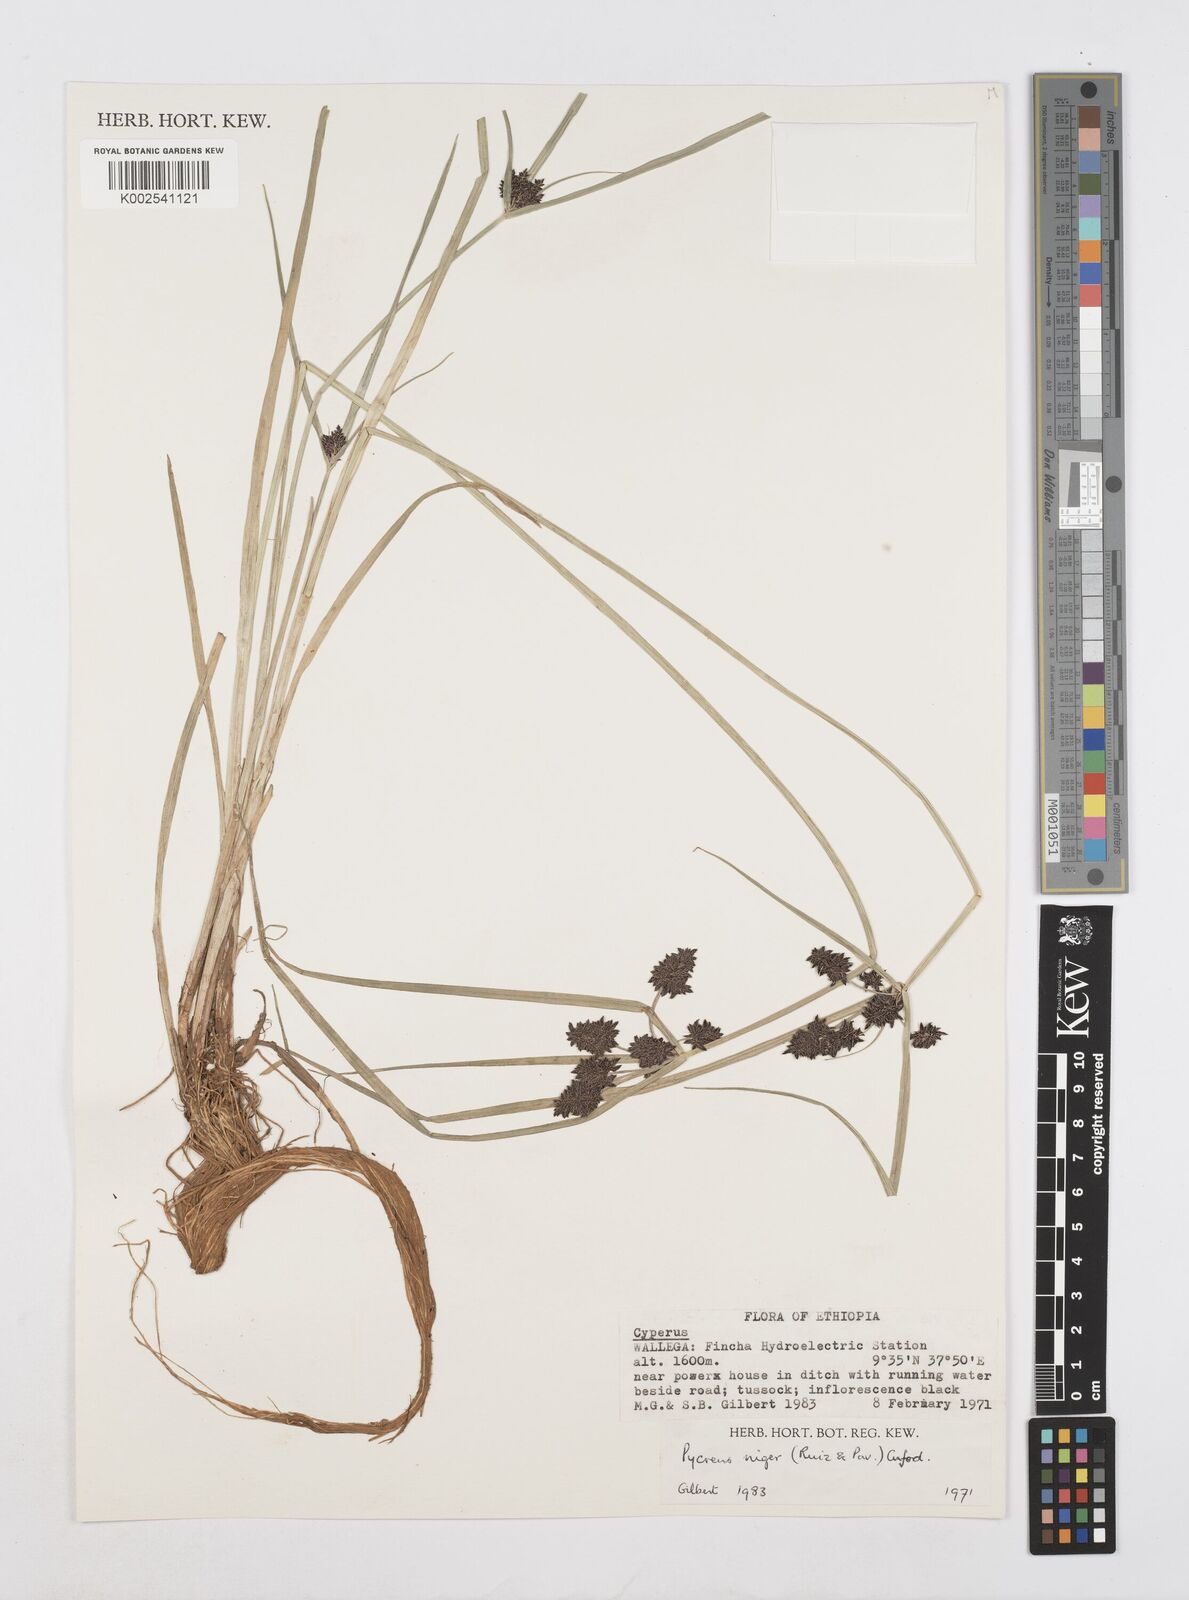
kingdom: Plantae
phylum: Tracheophyta
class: Liliopsida
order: Poales
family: Cyperaceae
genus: Cyperus
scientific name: Cyperus elegantulus
